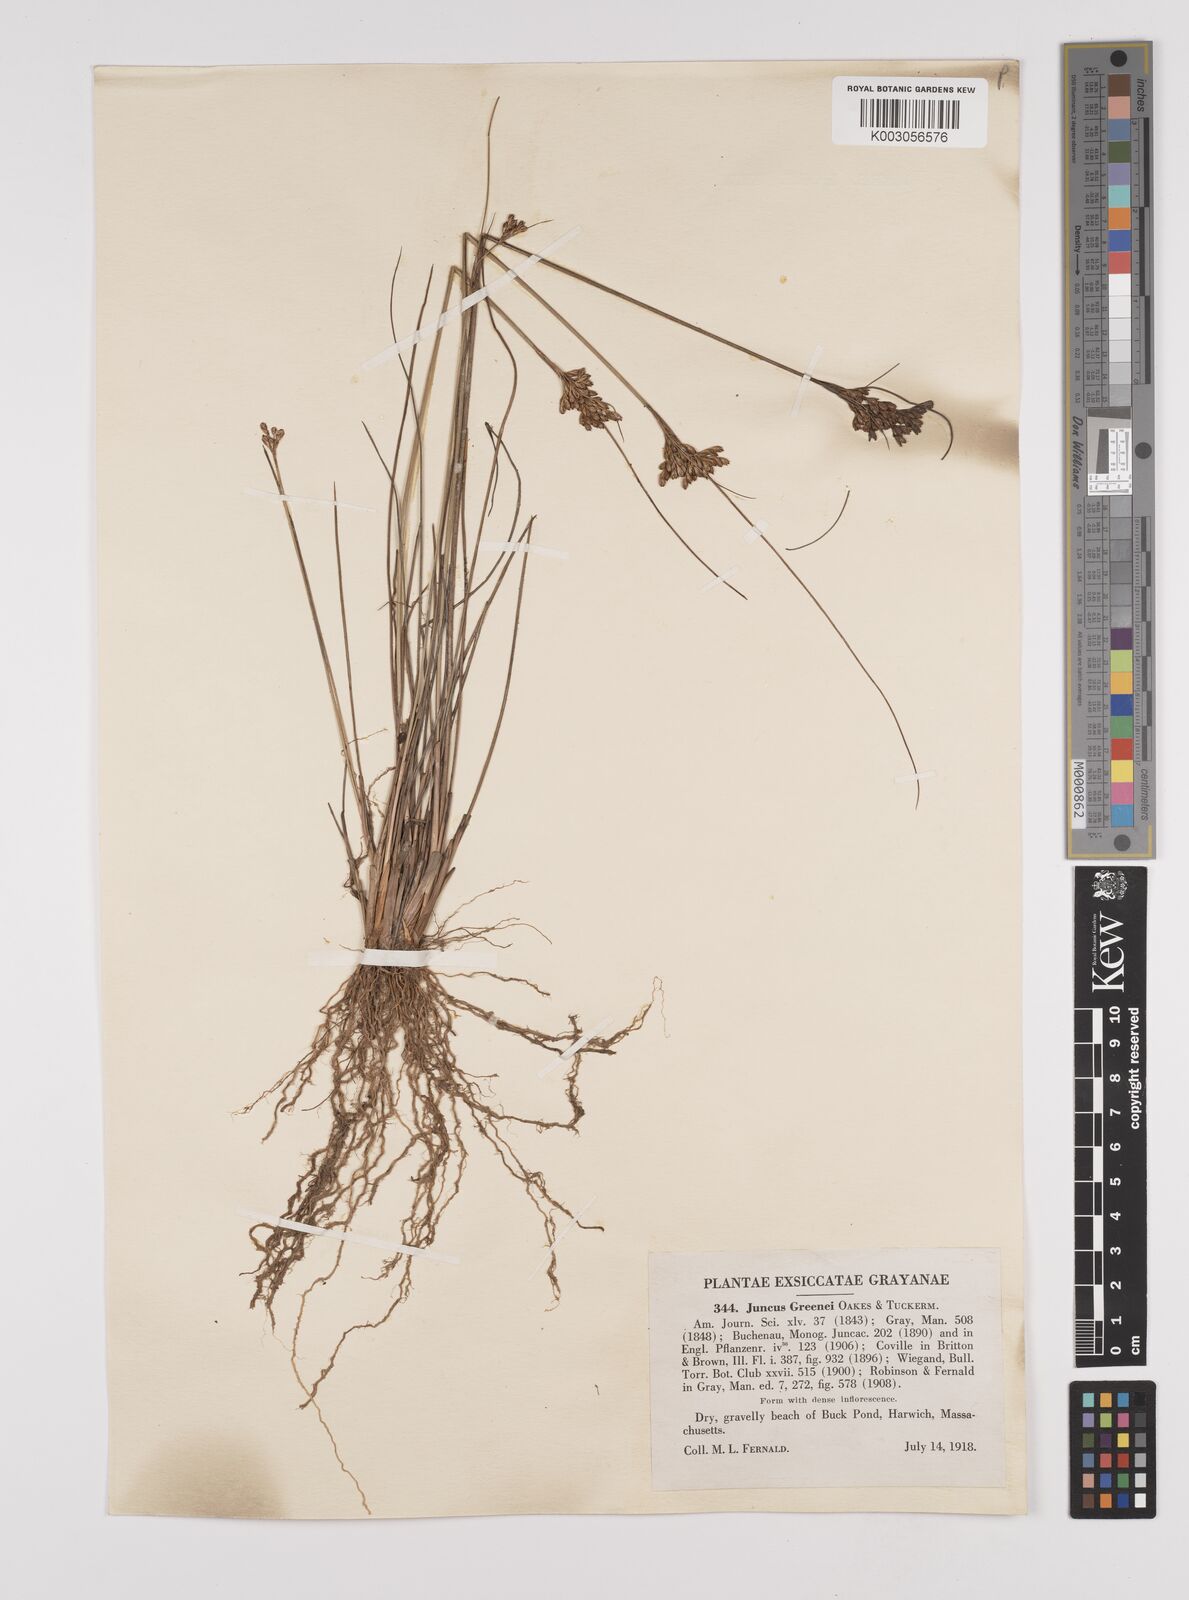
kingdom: Plantae
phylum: Tracheophyta
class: Liliopsida
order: Poales
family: Juncaceae
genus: Juncus
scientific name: Juncus greenei
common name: Greene's rush
